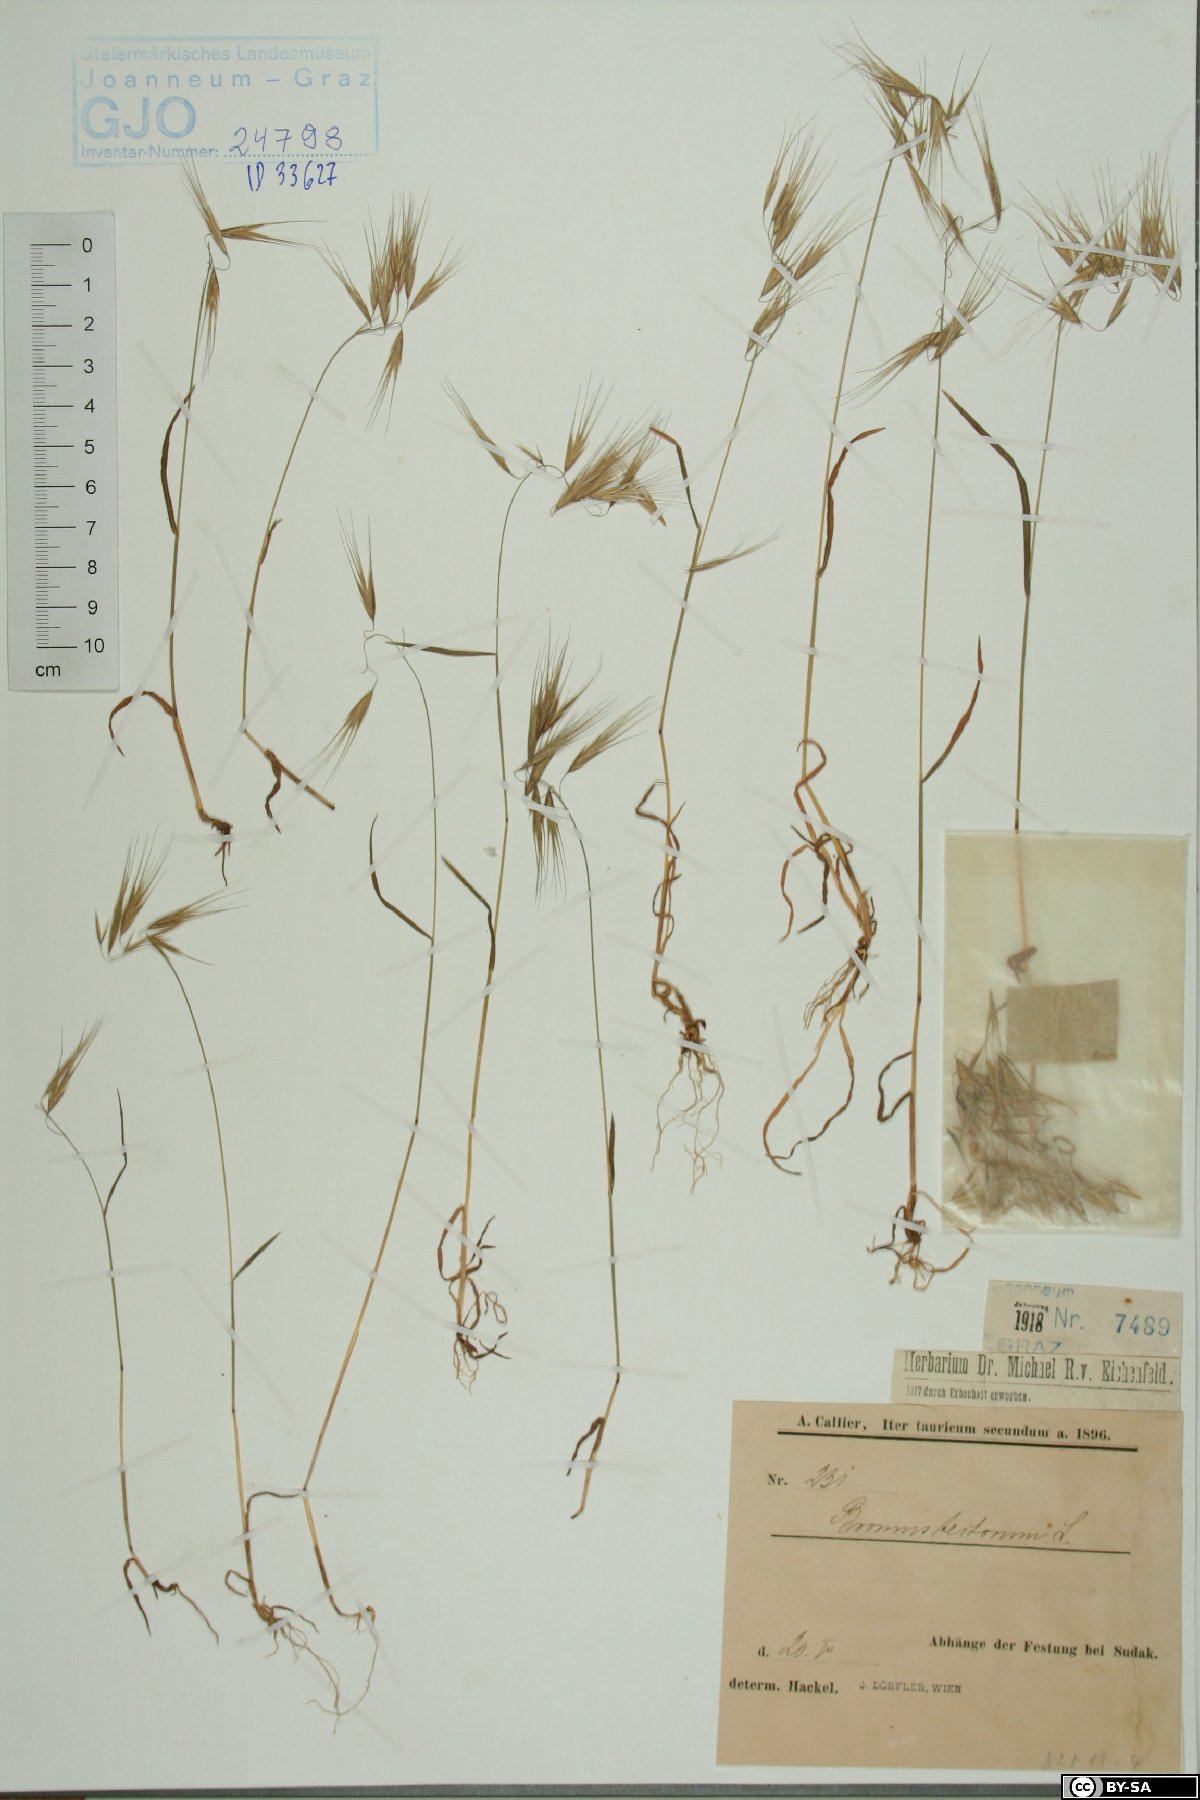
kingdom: Plantae
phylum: Tracheophyta
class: Liliopsida
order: Poales
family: Poaceae
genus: Bromus
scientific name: Bromus tectorum
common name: Cheatgrass
